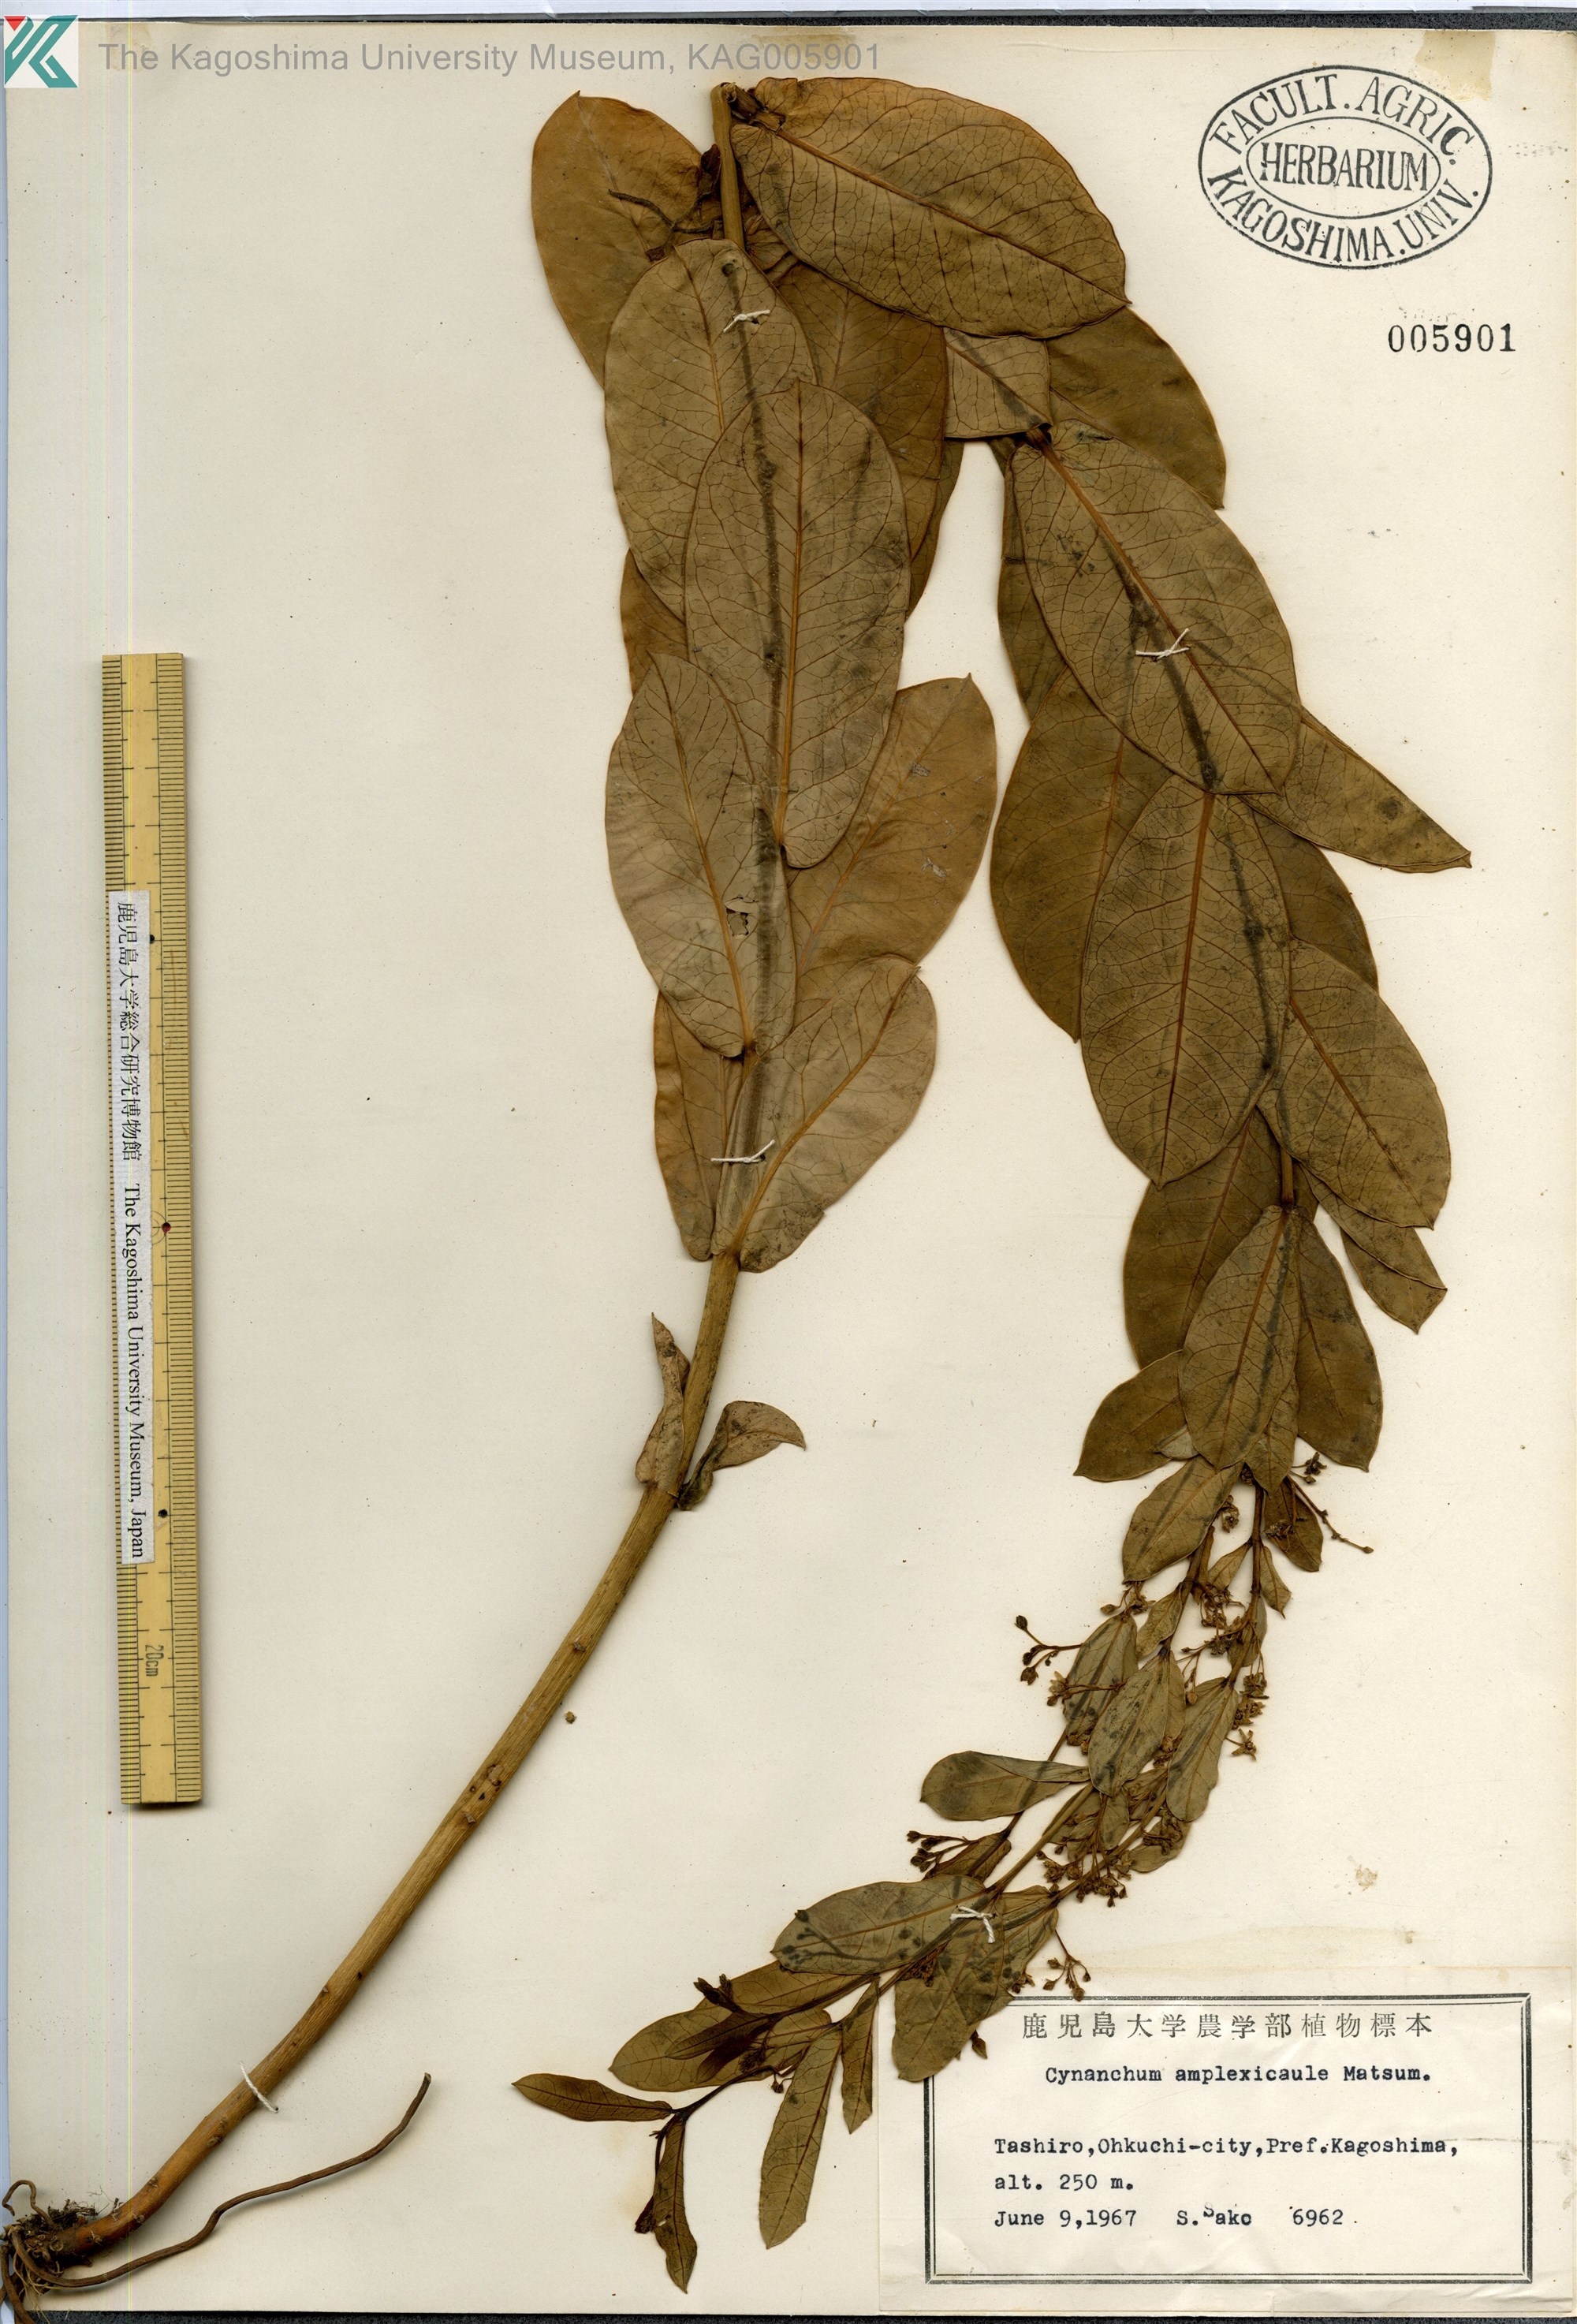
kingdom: Plantae
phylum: Tracheophyta
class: Magnoliopsida
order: Gentianales
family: Apocynaceae
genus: Vincetoxicum
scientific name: Vincetoxicum amplexicaule
